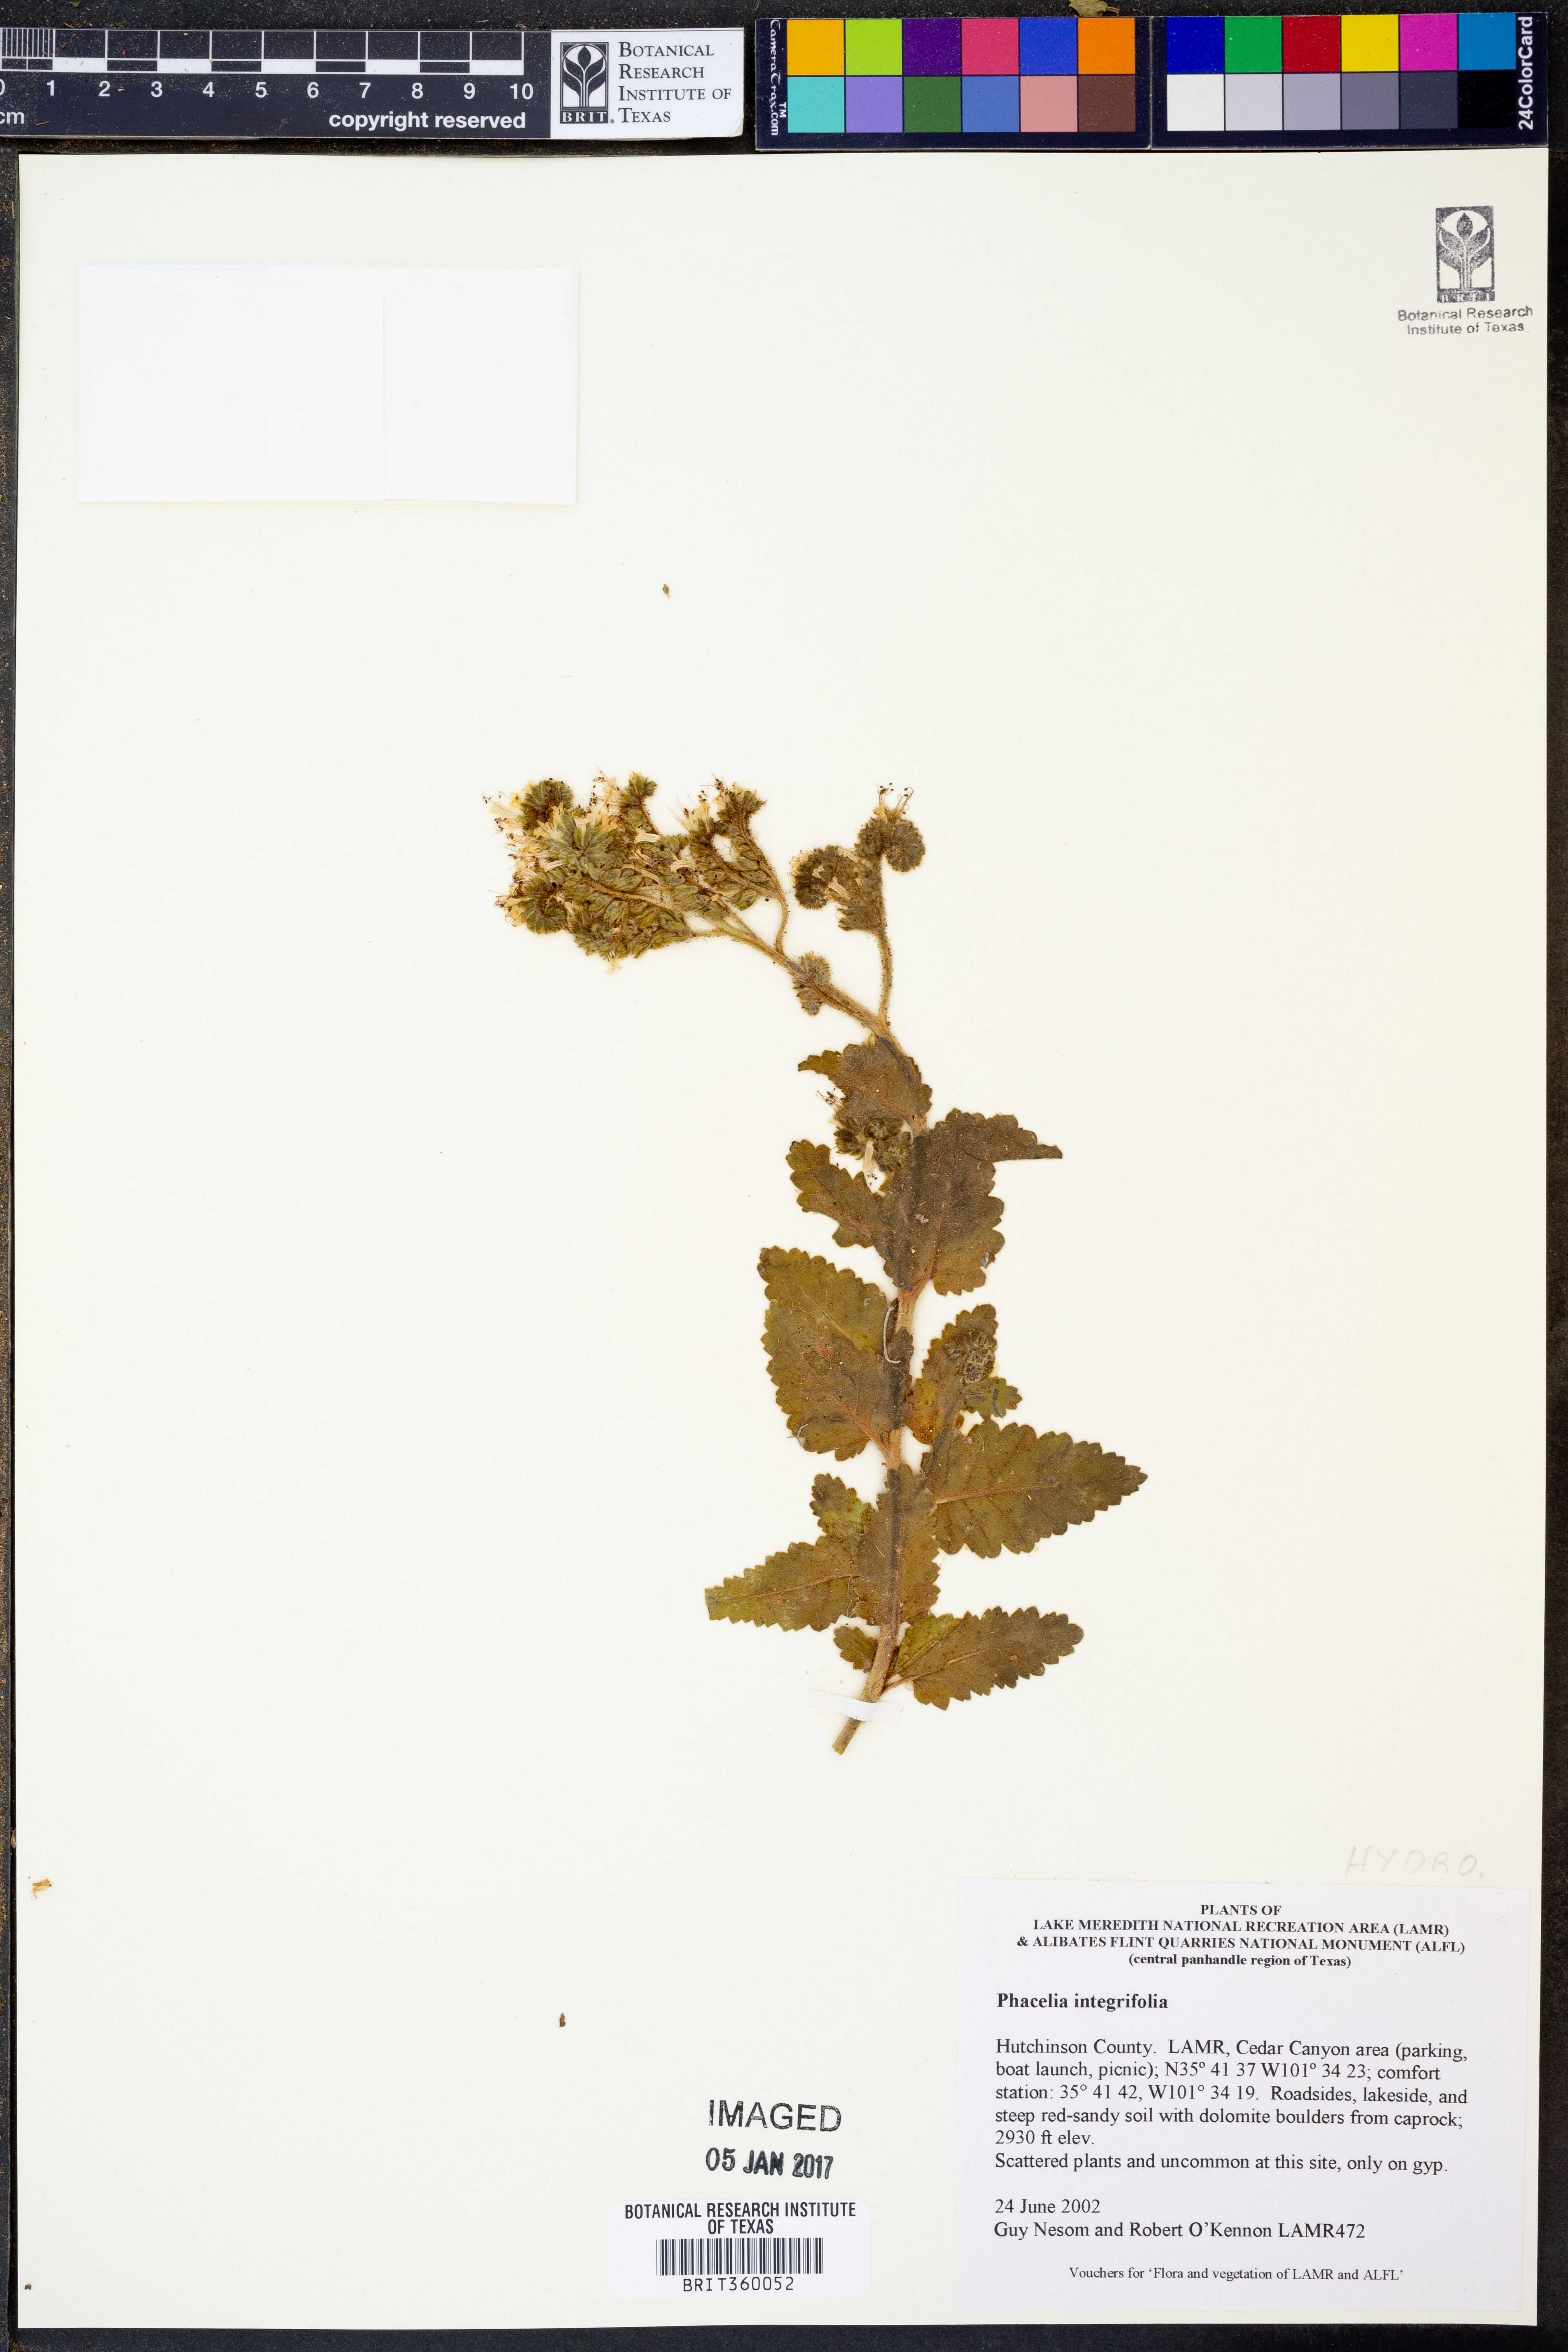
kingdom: Plantae
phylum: Tracheophyta
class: Magnoliopsida
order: Boraginales
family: Hydrophyllaceae
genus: Phacelia
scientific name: Phacelia integrifolia
